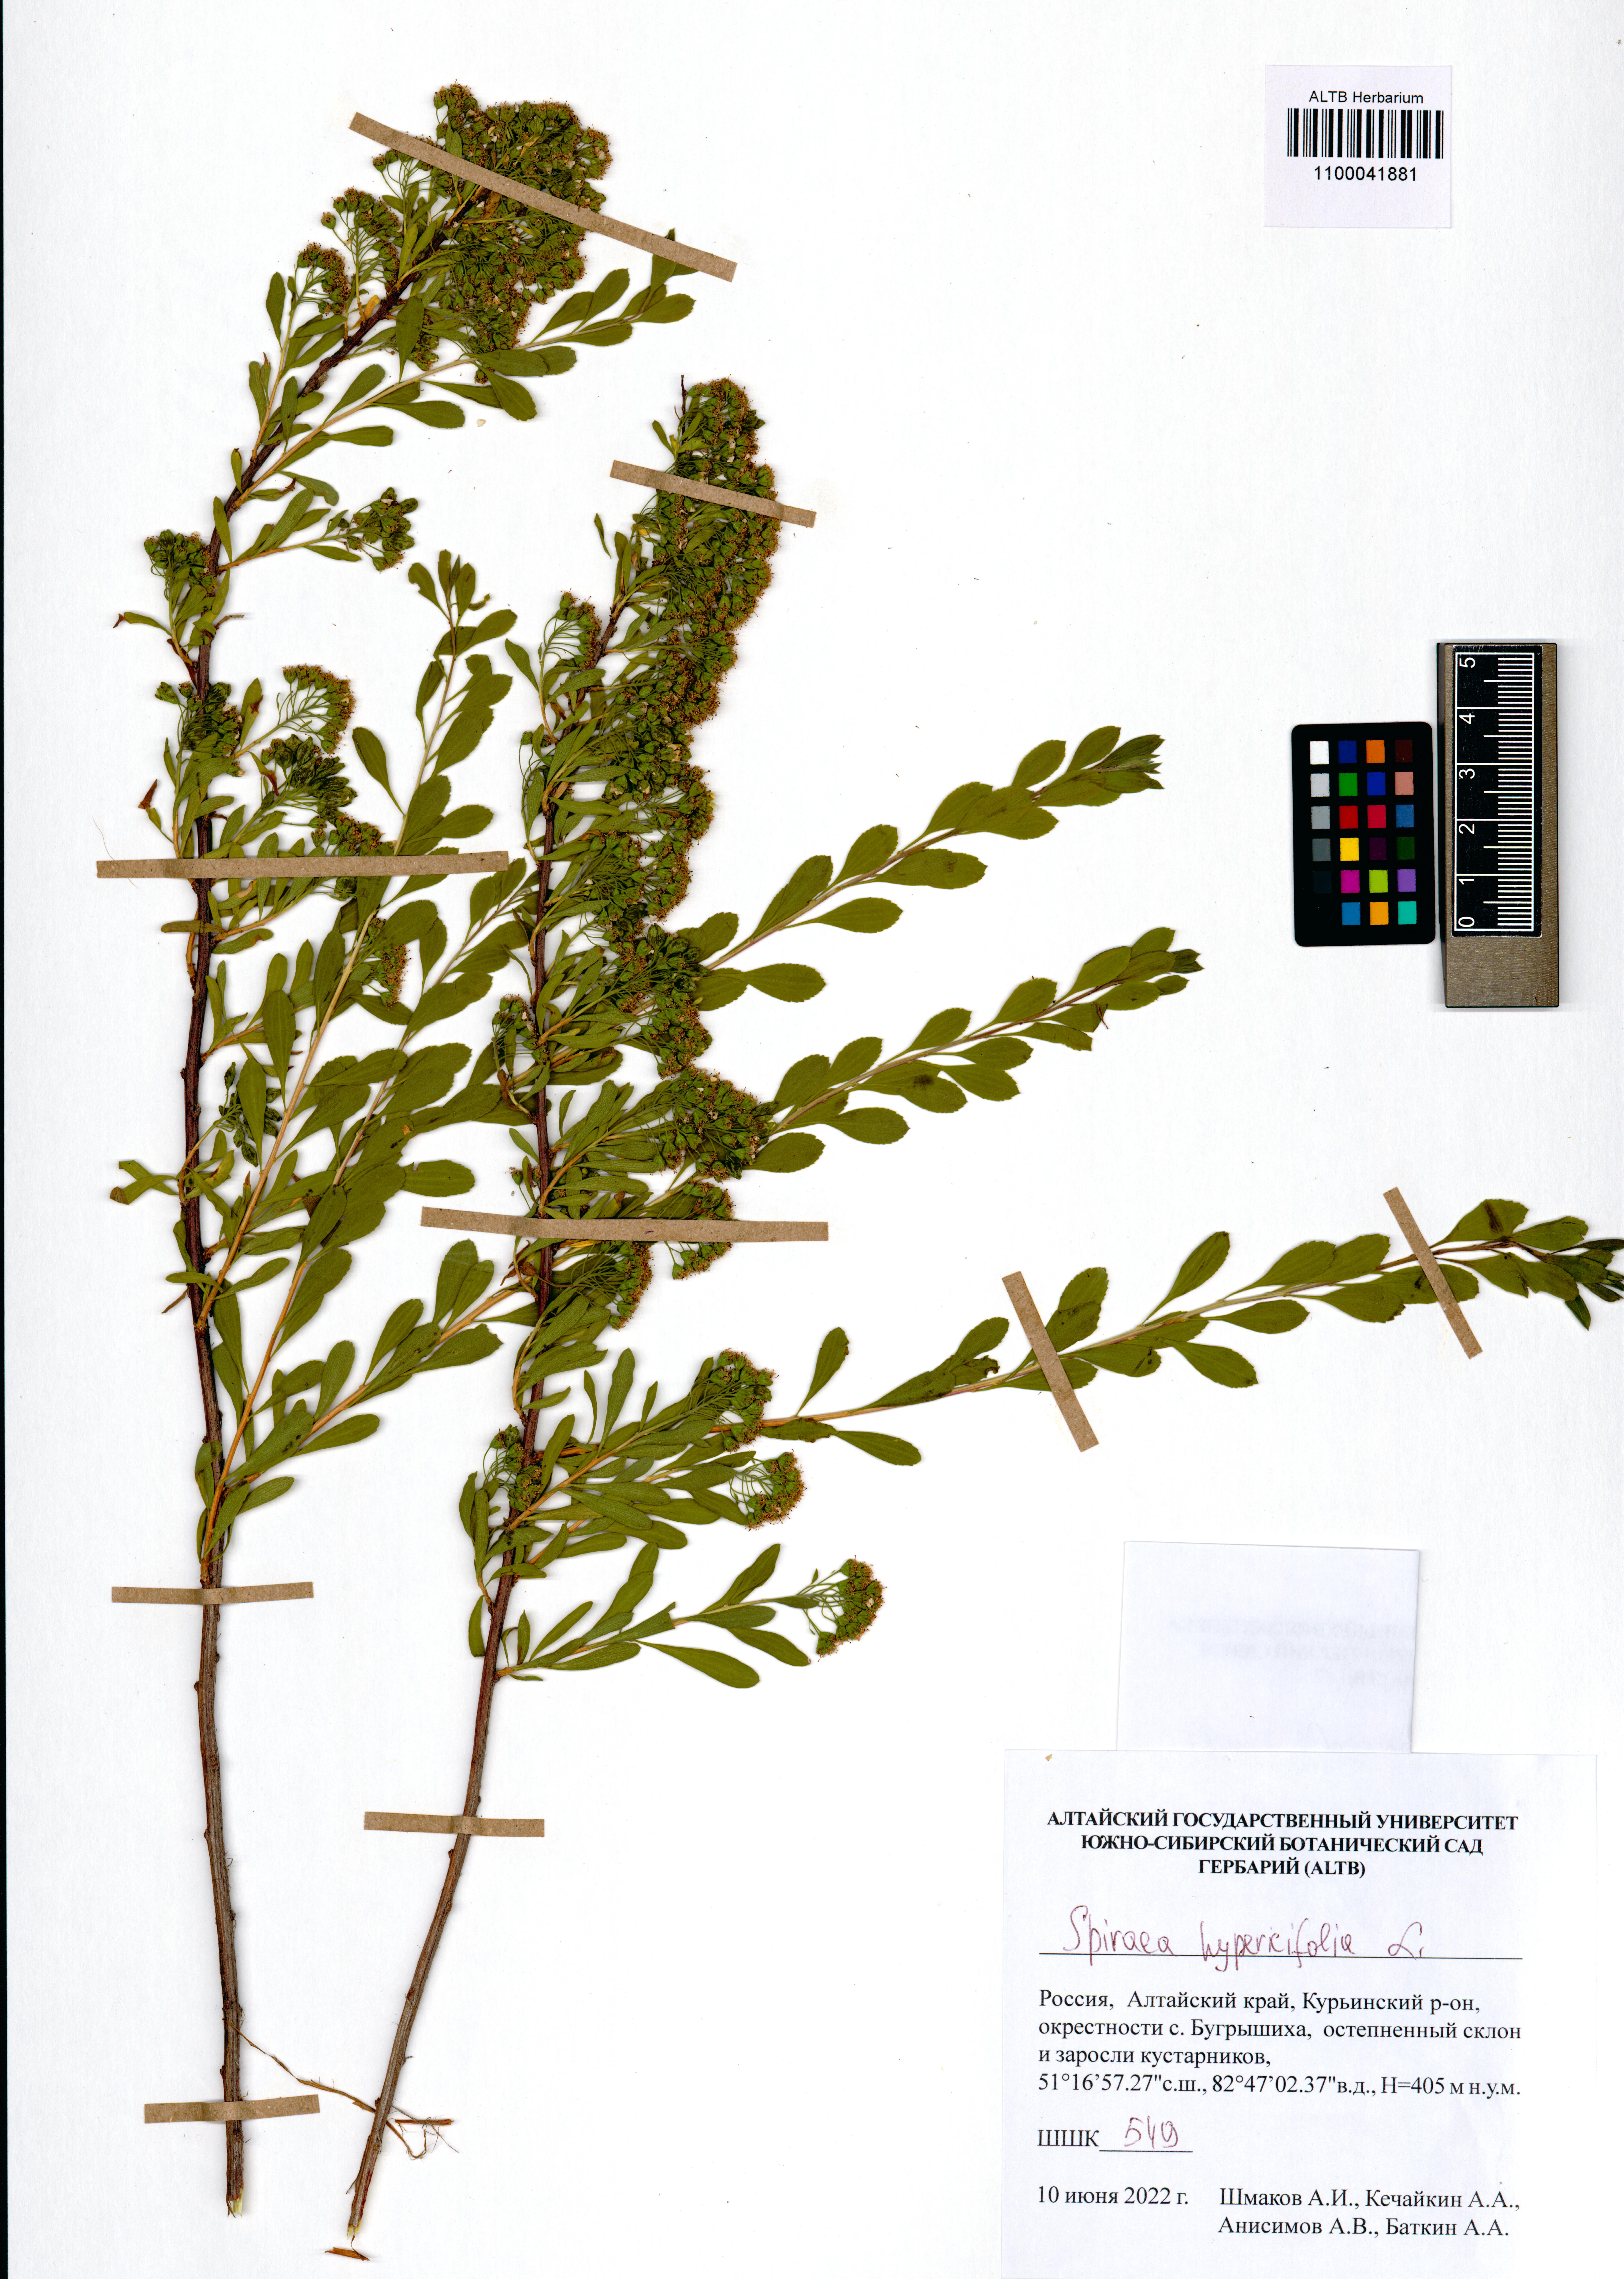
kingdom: Plantae
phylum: Tracheophyta
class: Magnoliopsida
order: Rosales
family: Rosaceae
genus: Spiraea
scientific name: Spiraea hypericifolia
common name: Iberian spirea
